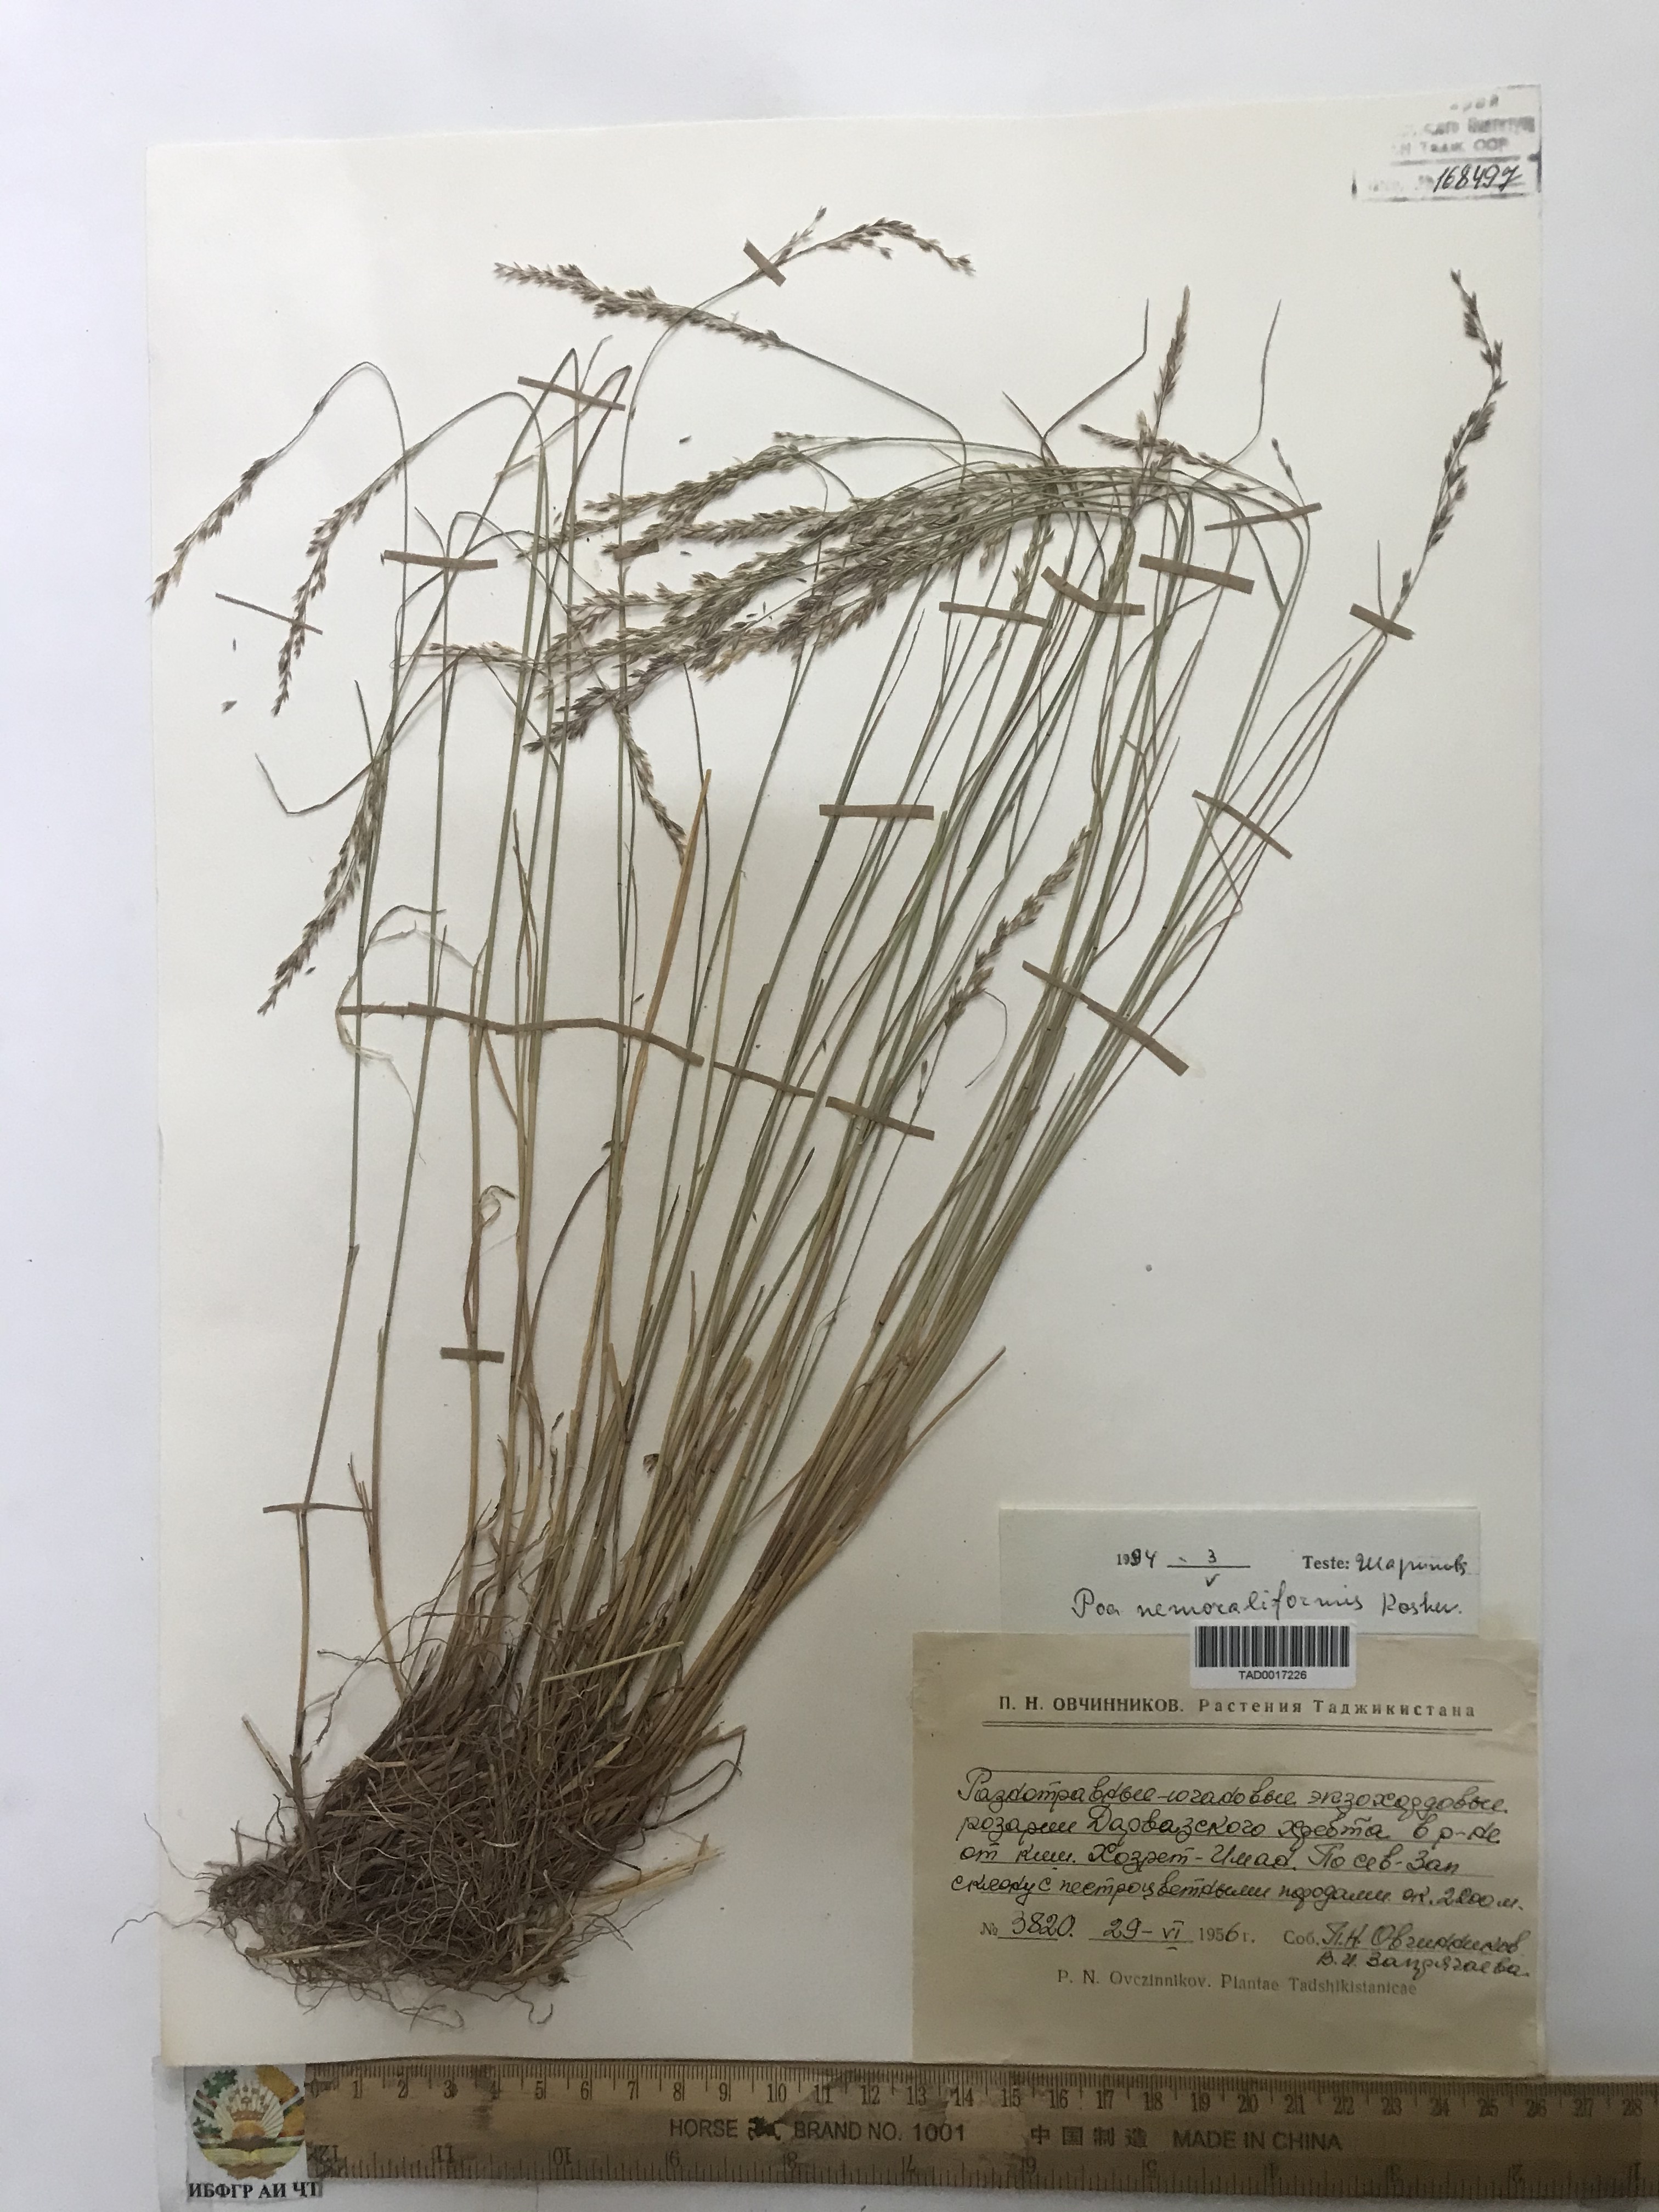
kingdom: Plantae
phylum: Tracheophyta
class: Liliopsida
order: Poales
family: Poaceae
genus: Poa
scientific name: Poa nemoralis
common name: Wood bluegrass
